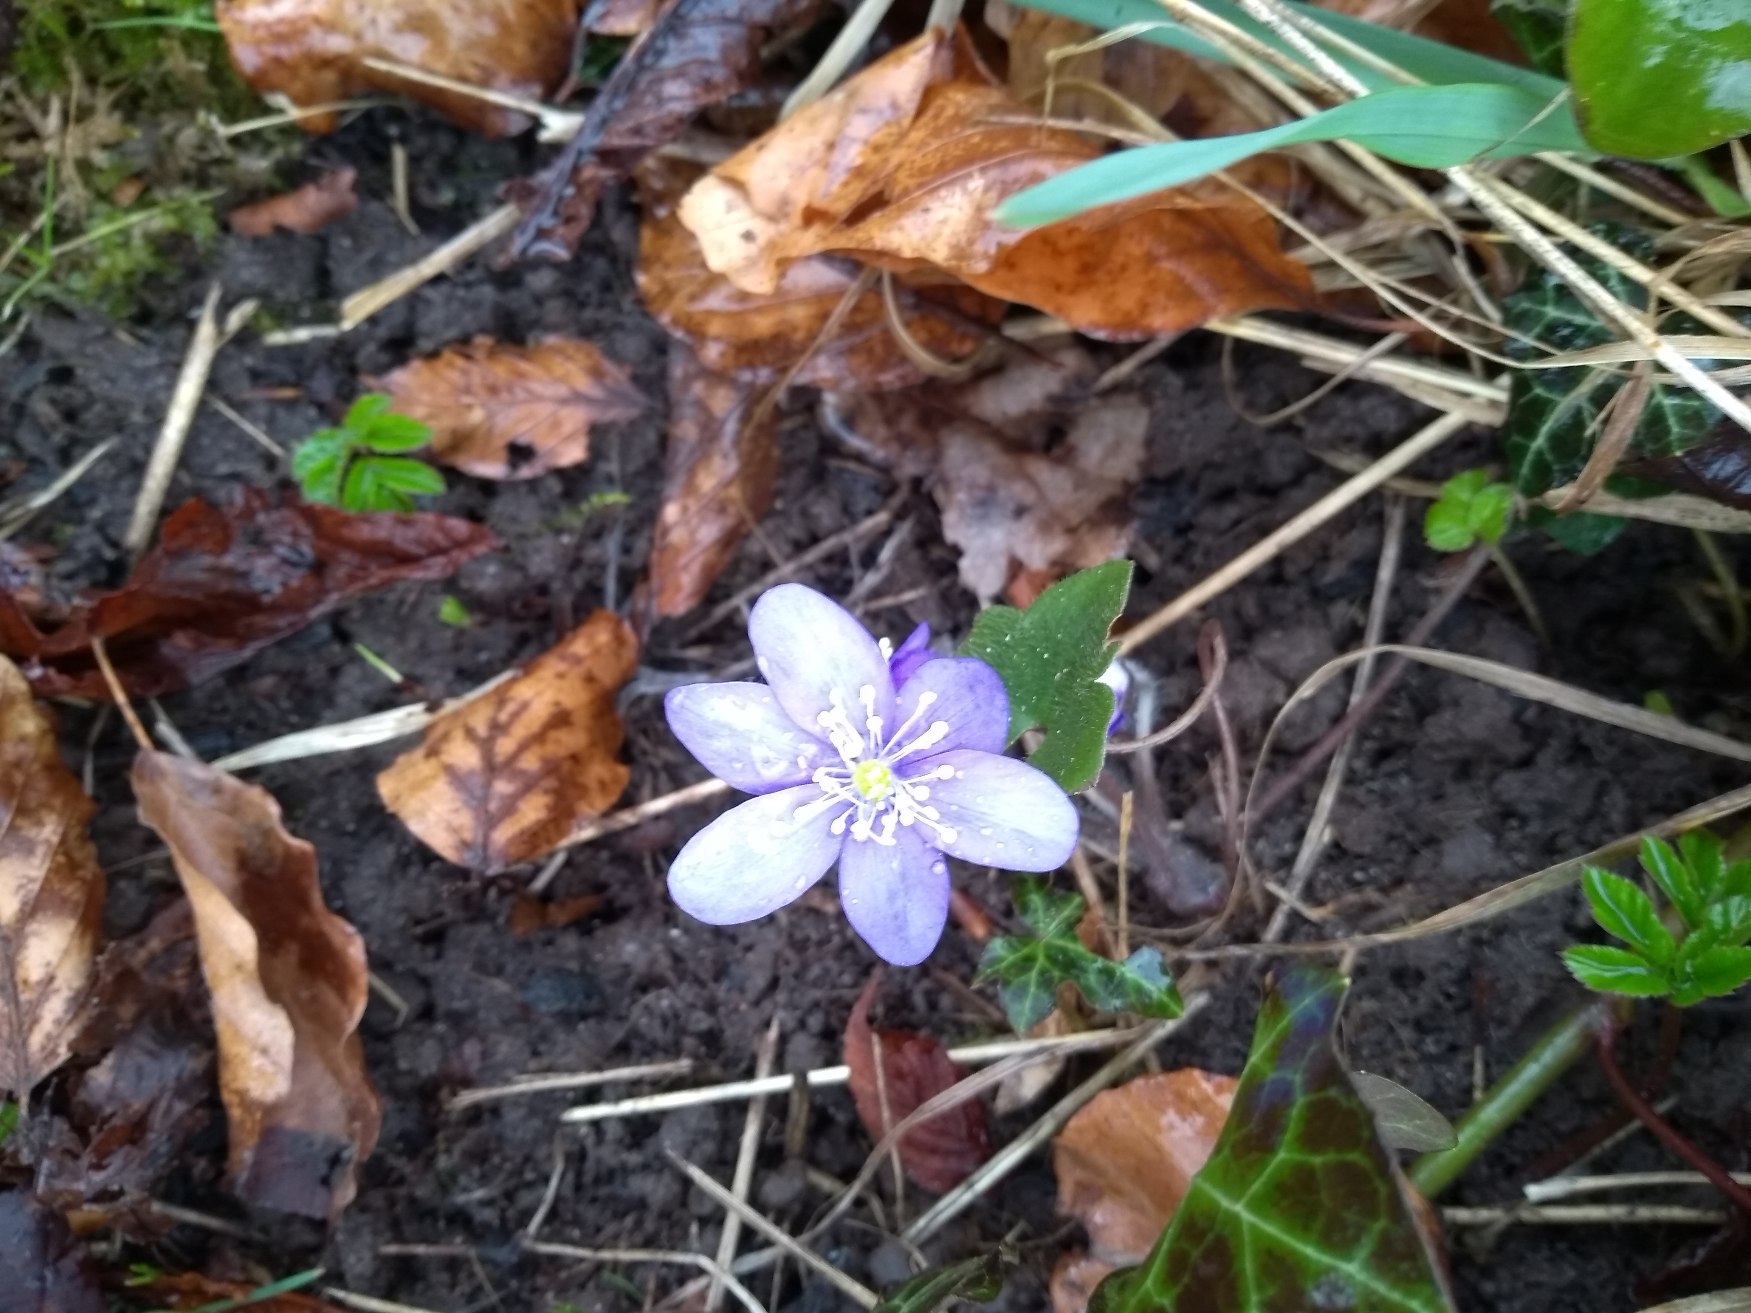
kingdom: Plantae
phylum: Tracheophyta
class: Magnoliopsida
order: Ranunculales
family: Ranunculaceae
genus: Hepatica
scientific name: Hepatica nobilis
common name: Blå anemone
